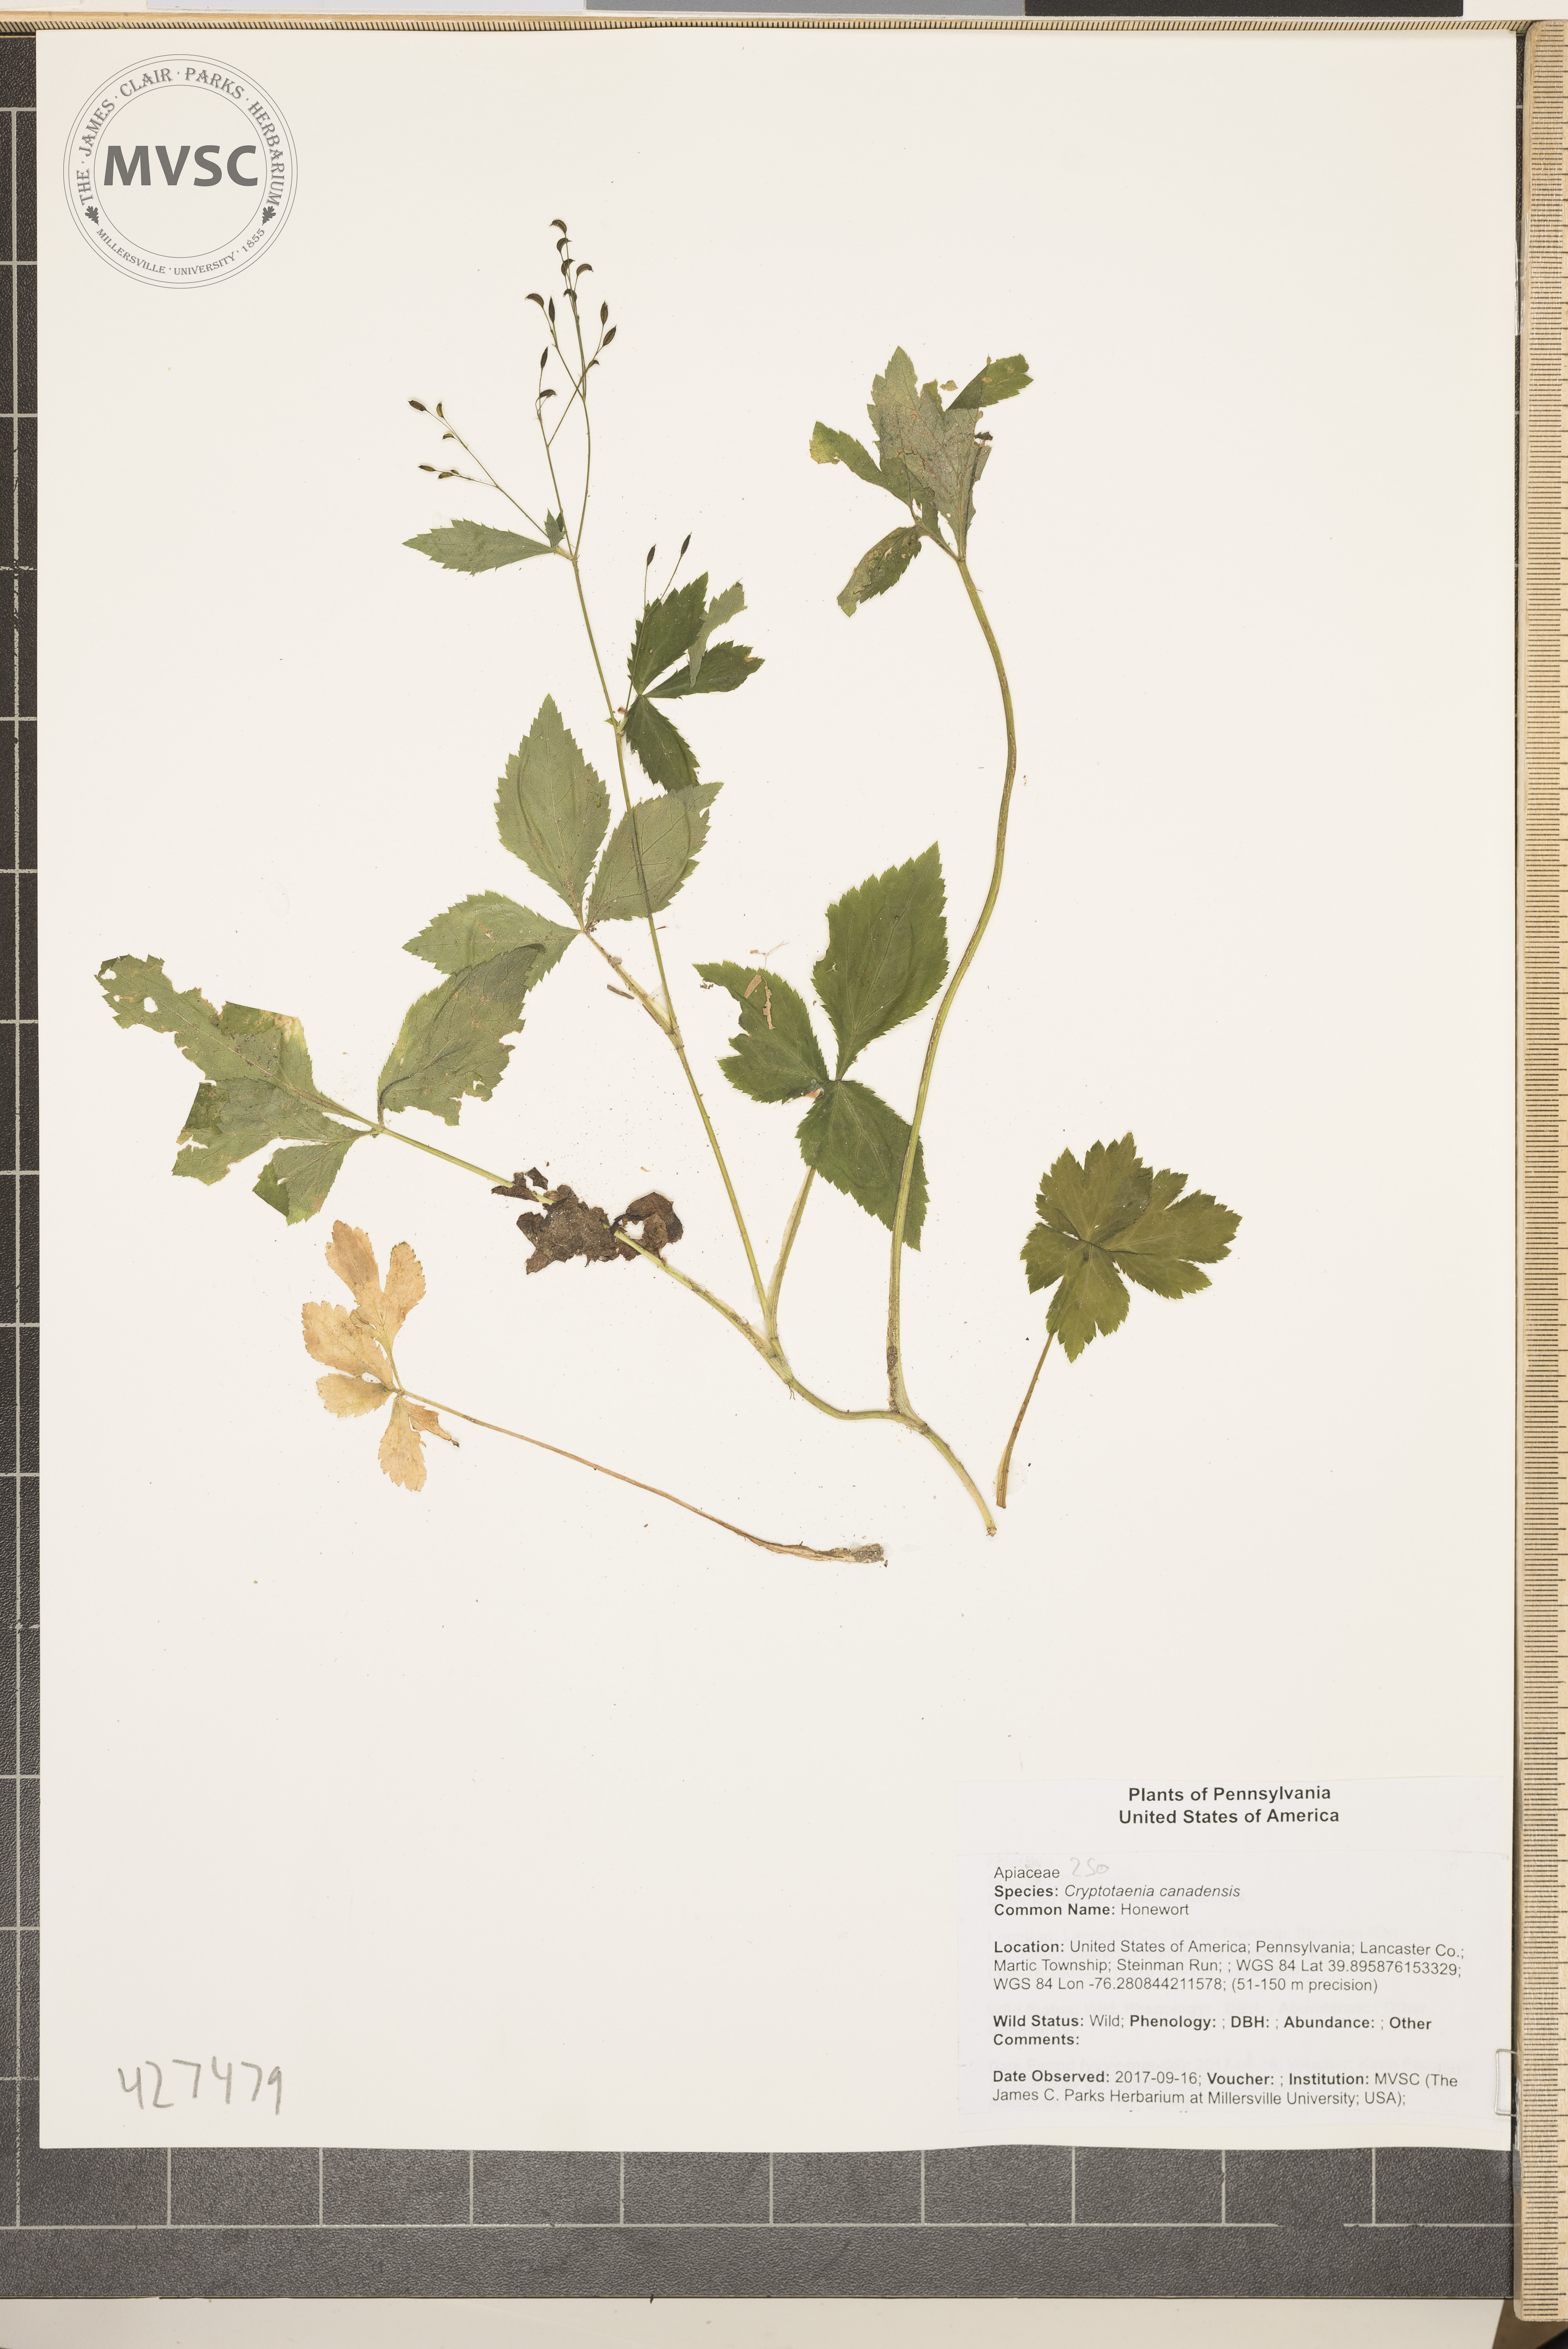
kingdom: Plantae
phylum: Tracheophyta
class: Magnoliopsida
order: Apiales
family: Apiaceae
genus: Cryptotaenia
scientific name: Cryptotaenia canadensis
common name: Honewort
